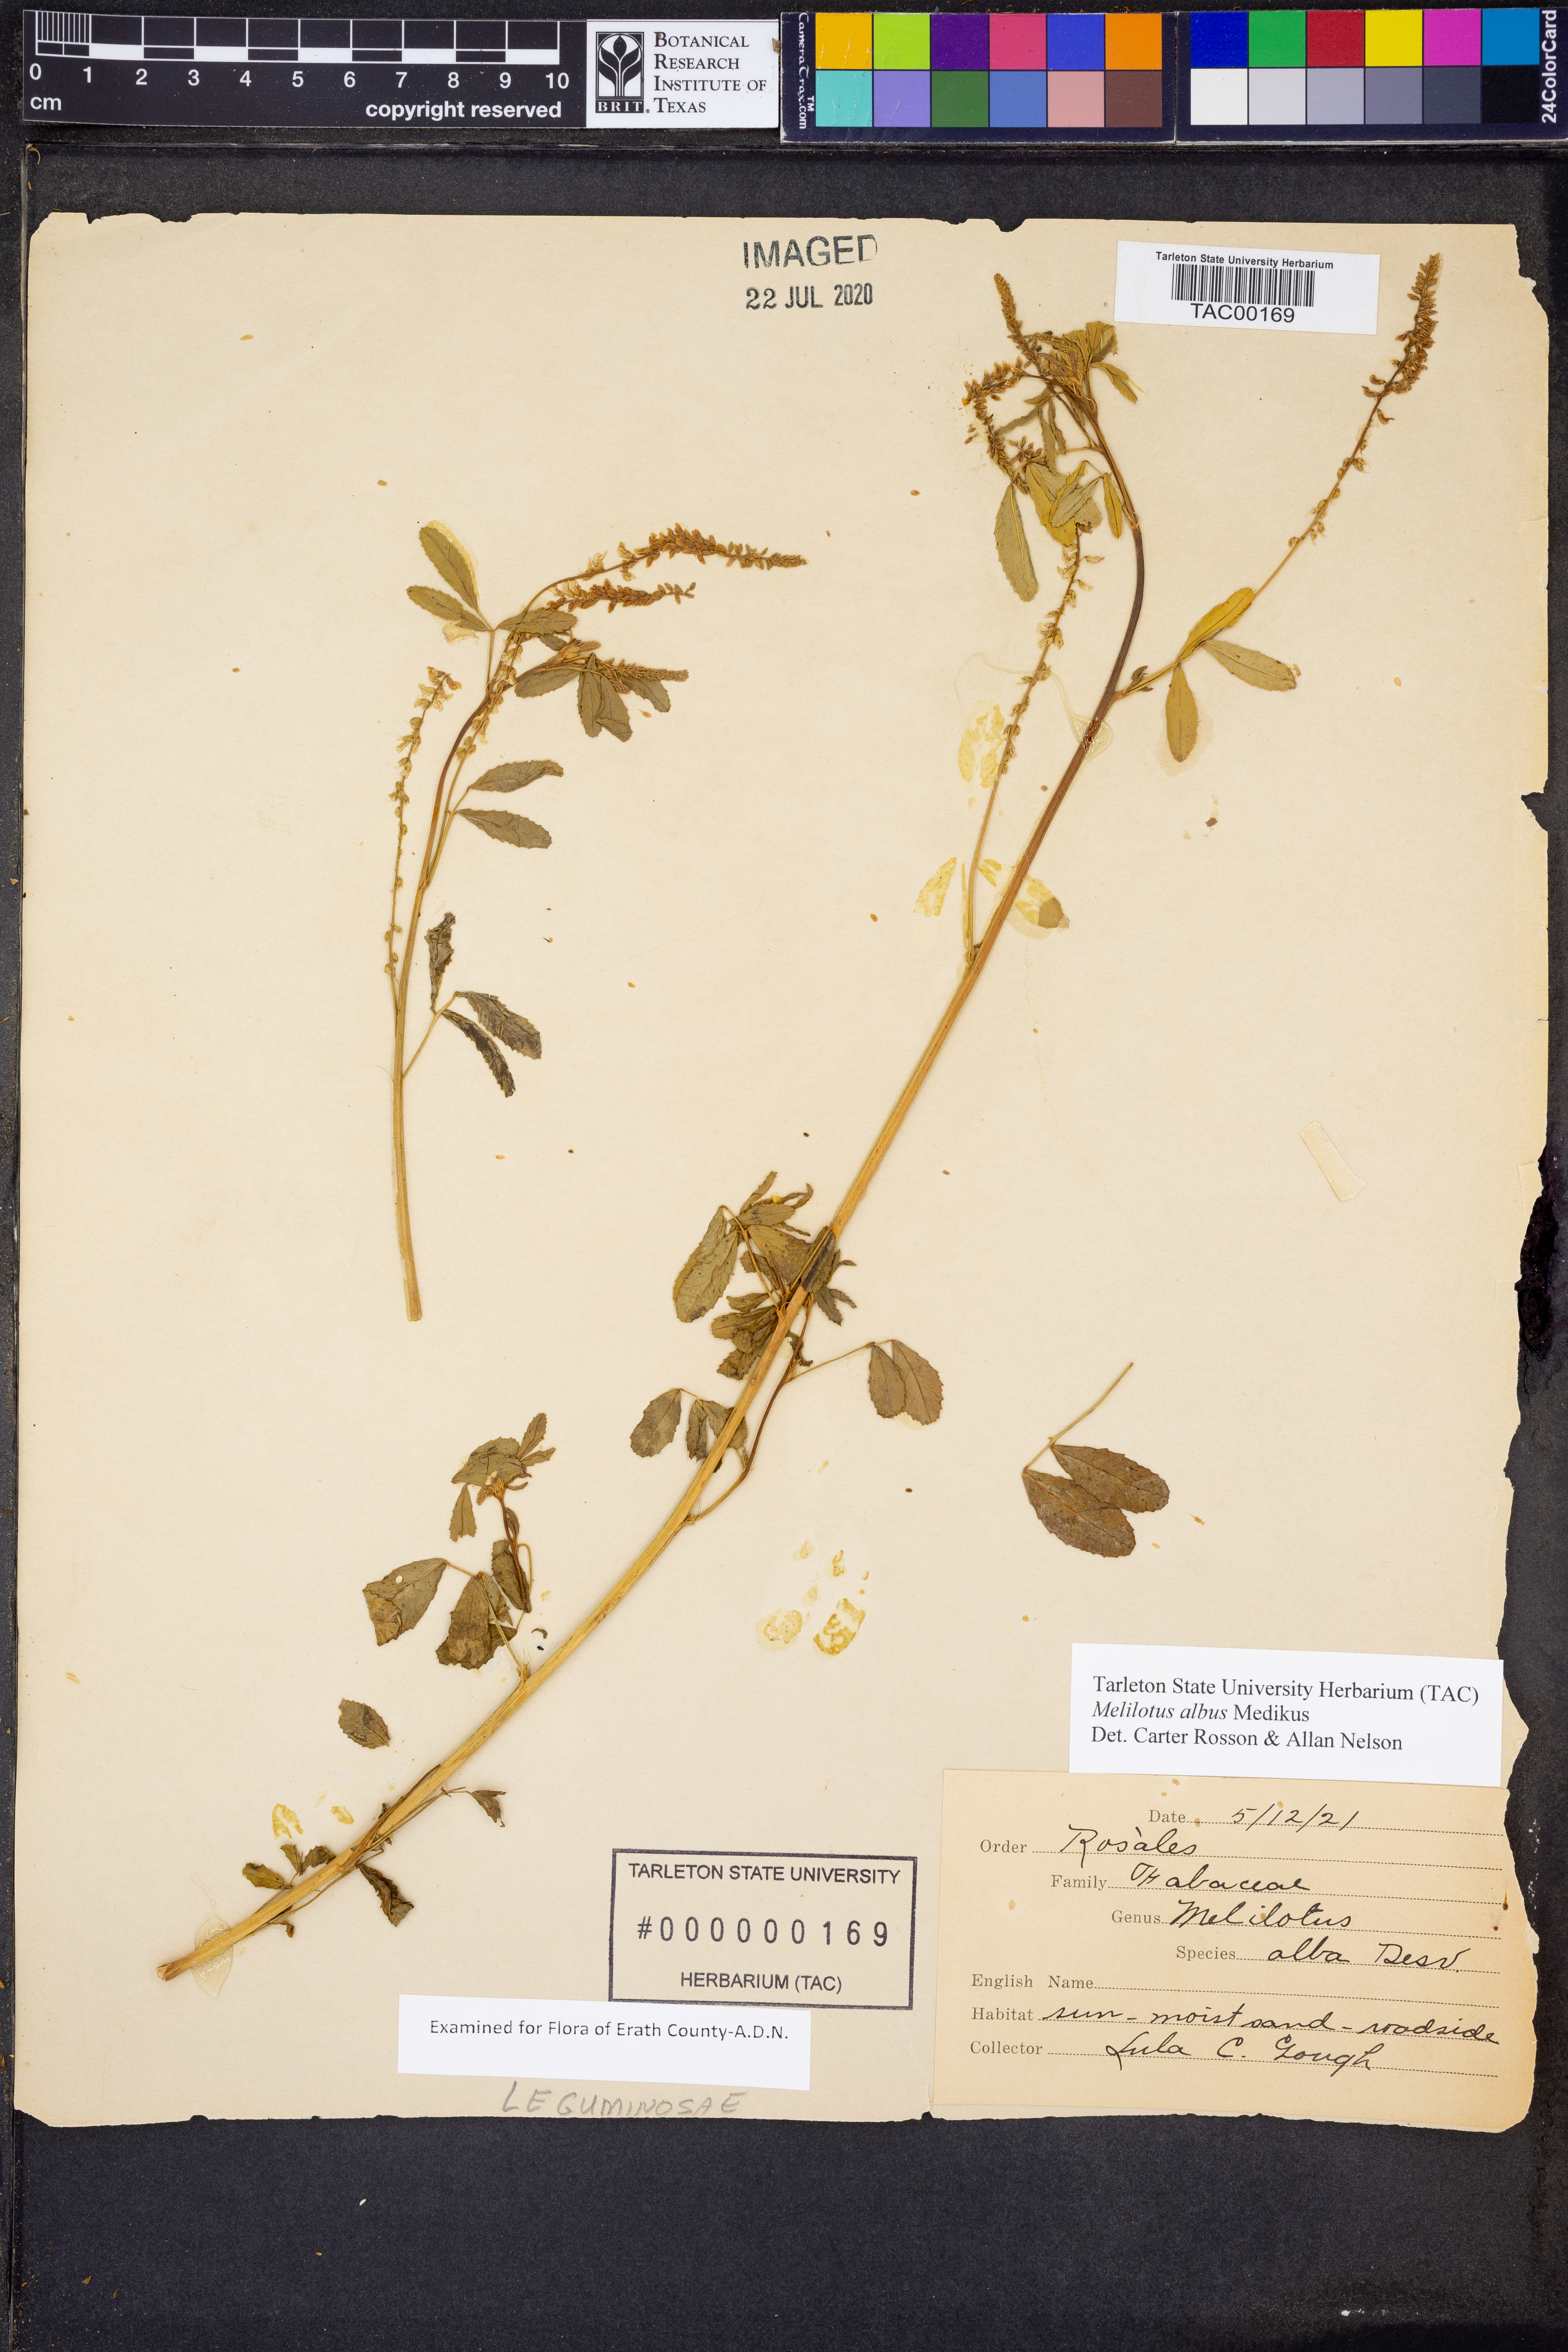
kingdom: Plantae
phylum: Tracheophyta
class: Magnoliopsida
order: Fabales
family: Fabaceae
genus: Melilotus
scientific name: Melilotus albus
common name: White melilot
